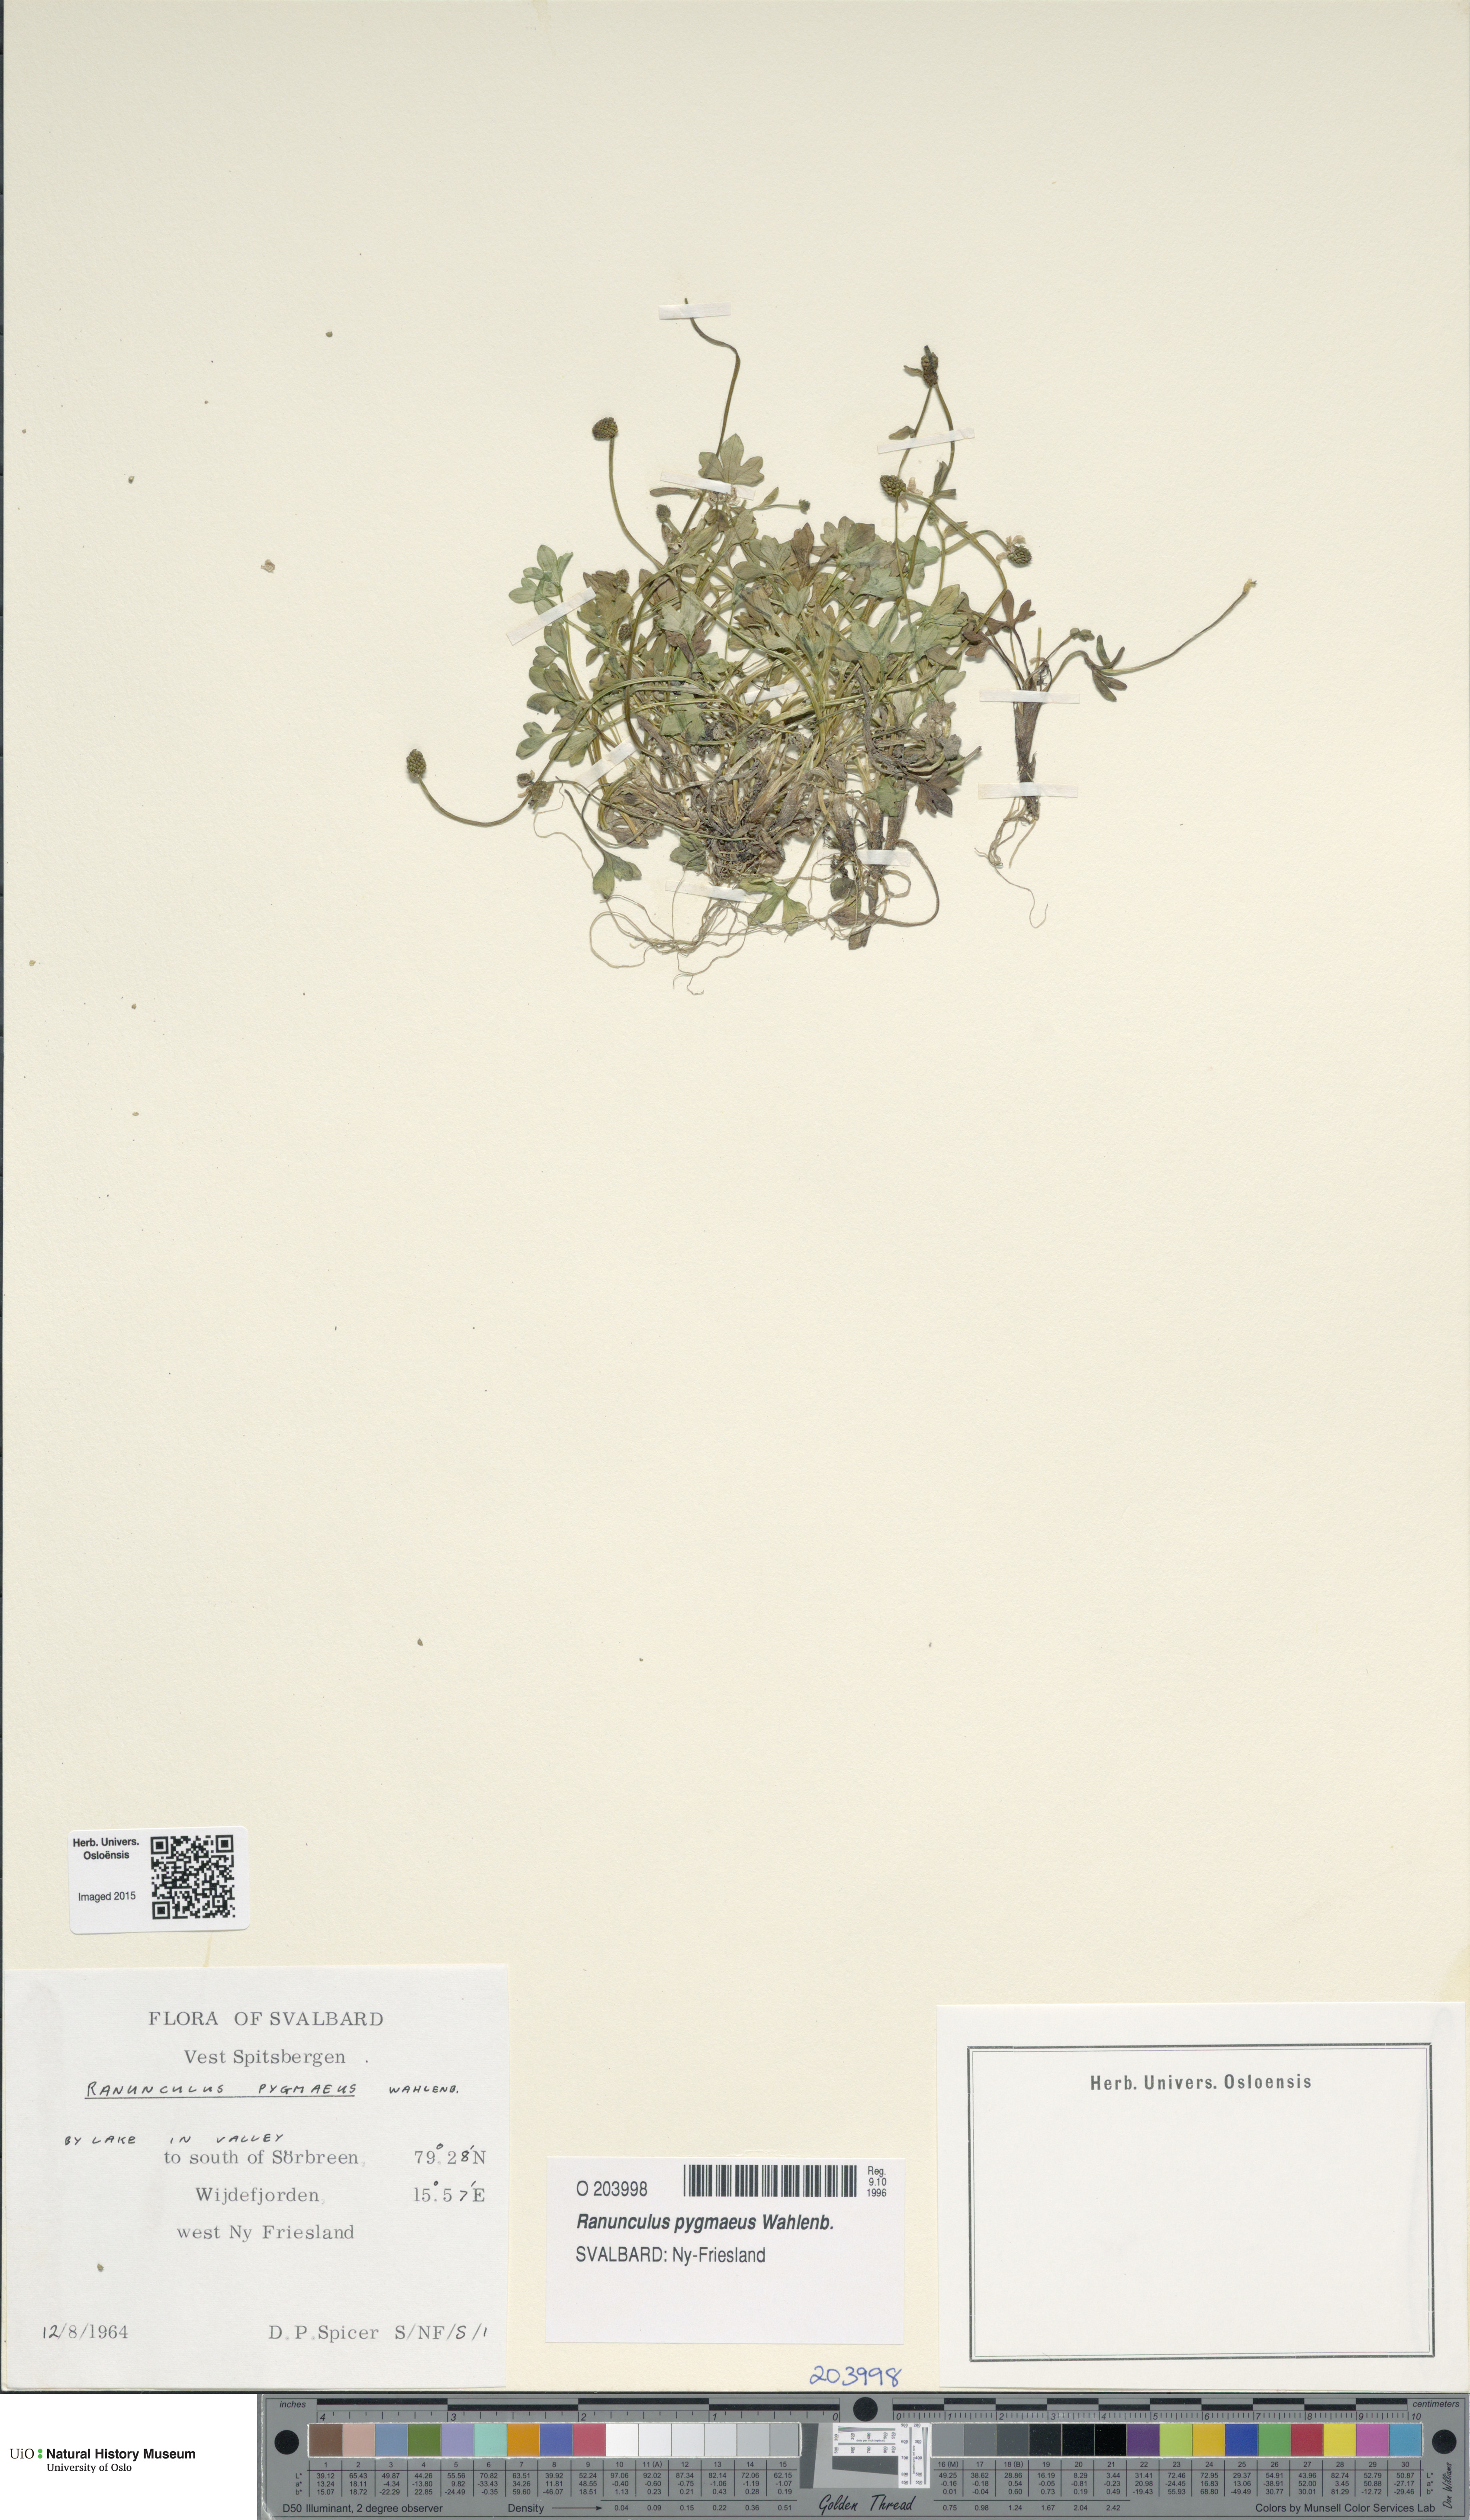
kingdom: Plantae
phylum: Tracheophyta
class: Magnoliopsida
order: Ranunculales
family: Ranunculaceae
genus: Ranunculus
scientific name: Ranunculus pygmaeus
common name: Dwarf buttercup
